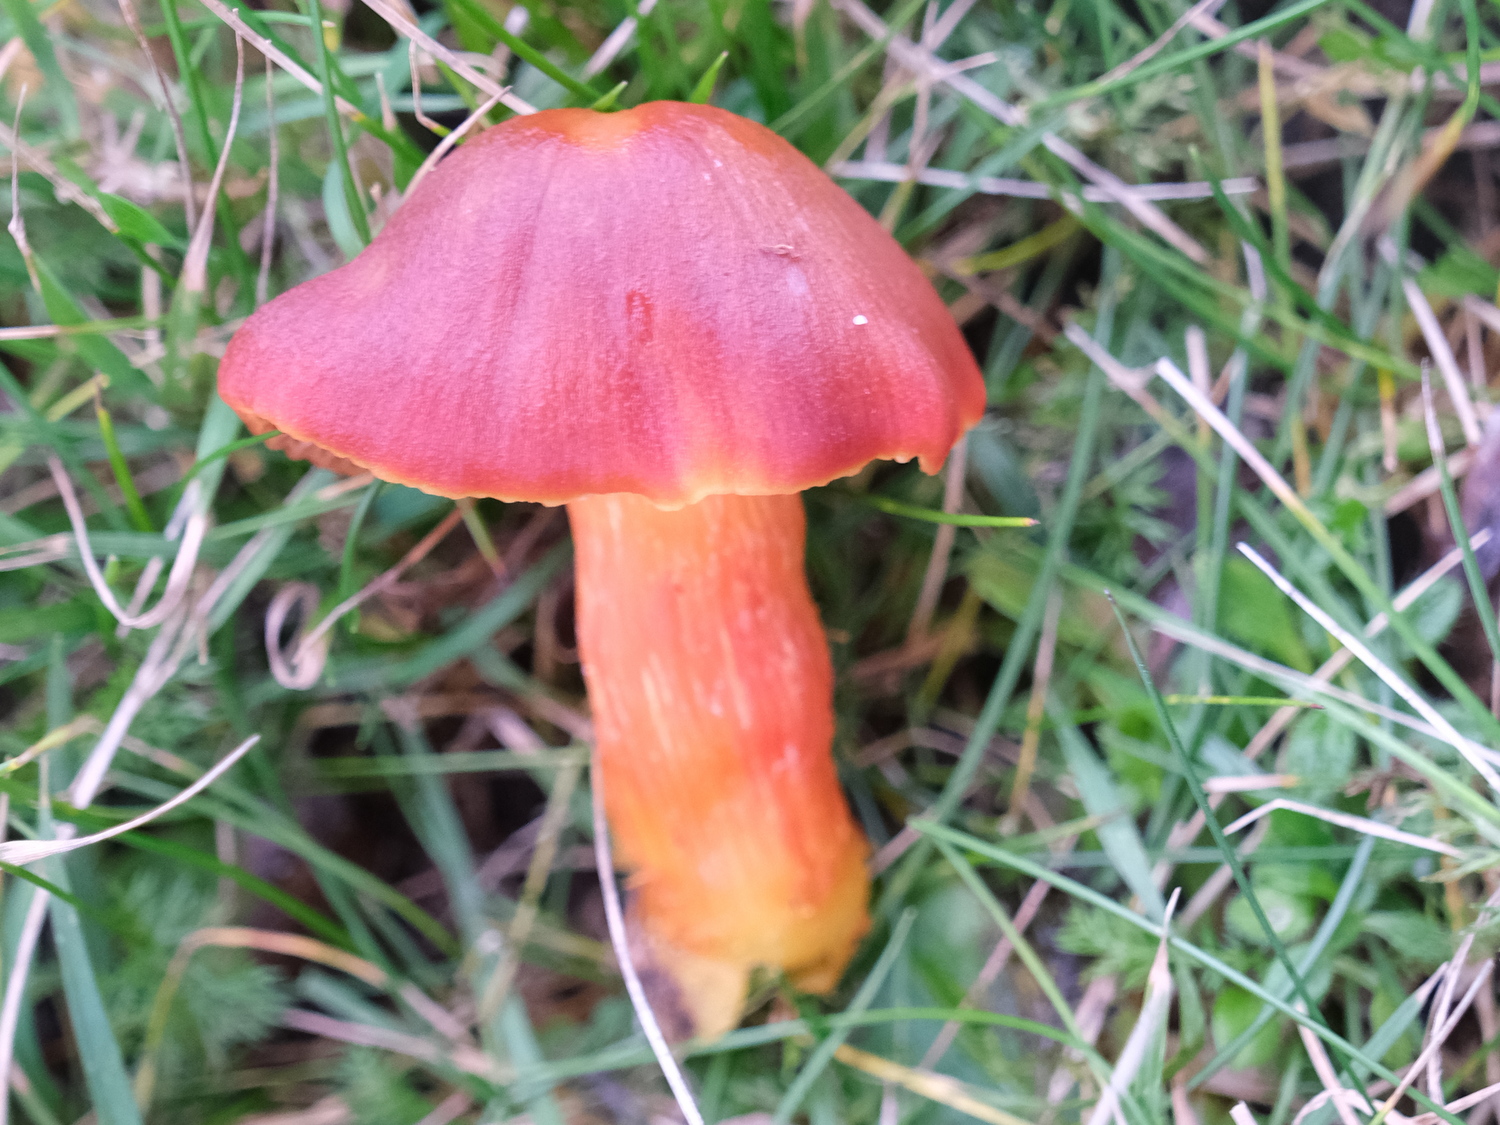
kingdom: Fungi
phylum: Basidiomycota
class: Agaricomycetes
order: Agaricales
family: Hygrophoraceae
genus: Hygrocybe
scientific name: Hygrocybe punicea
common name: skarlagen-vokshat
